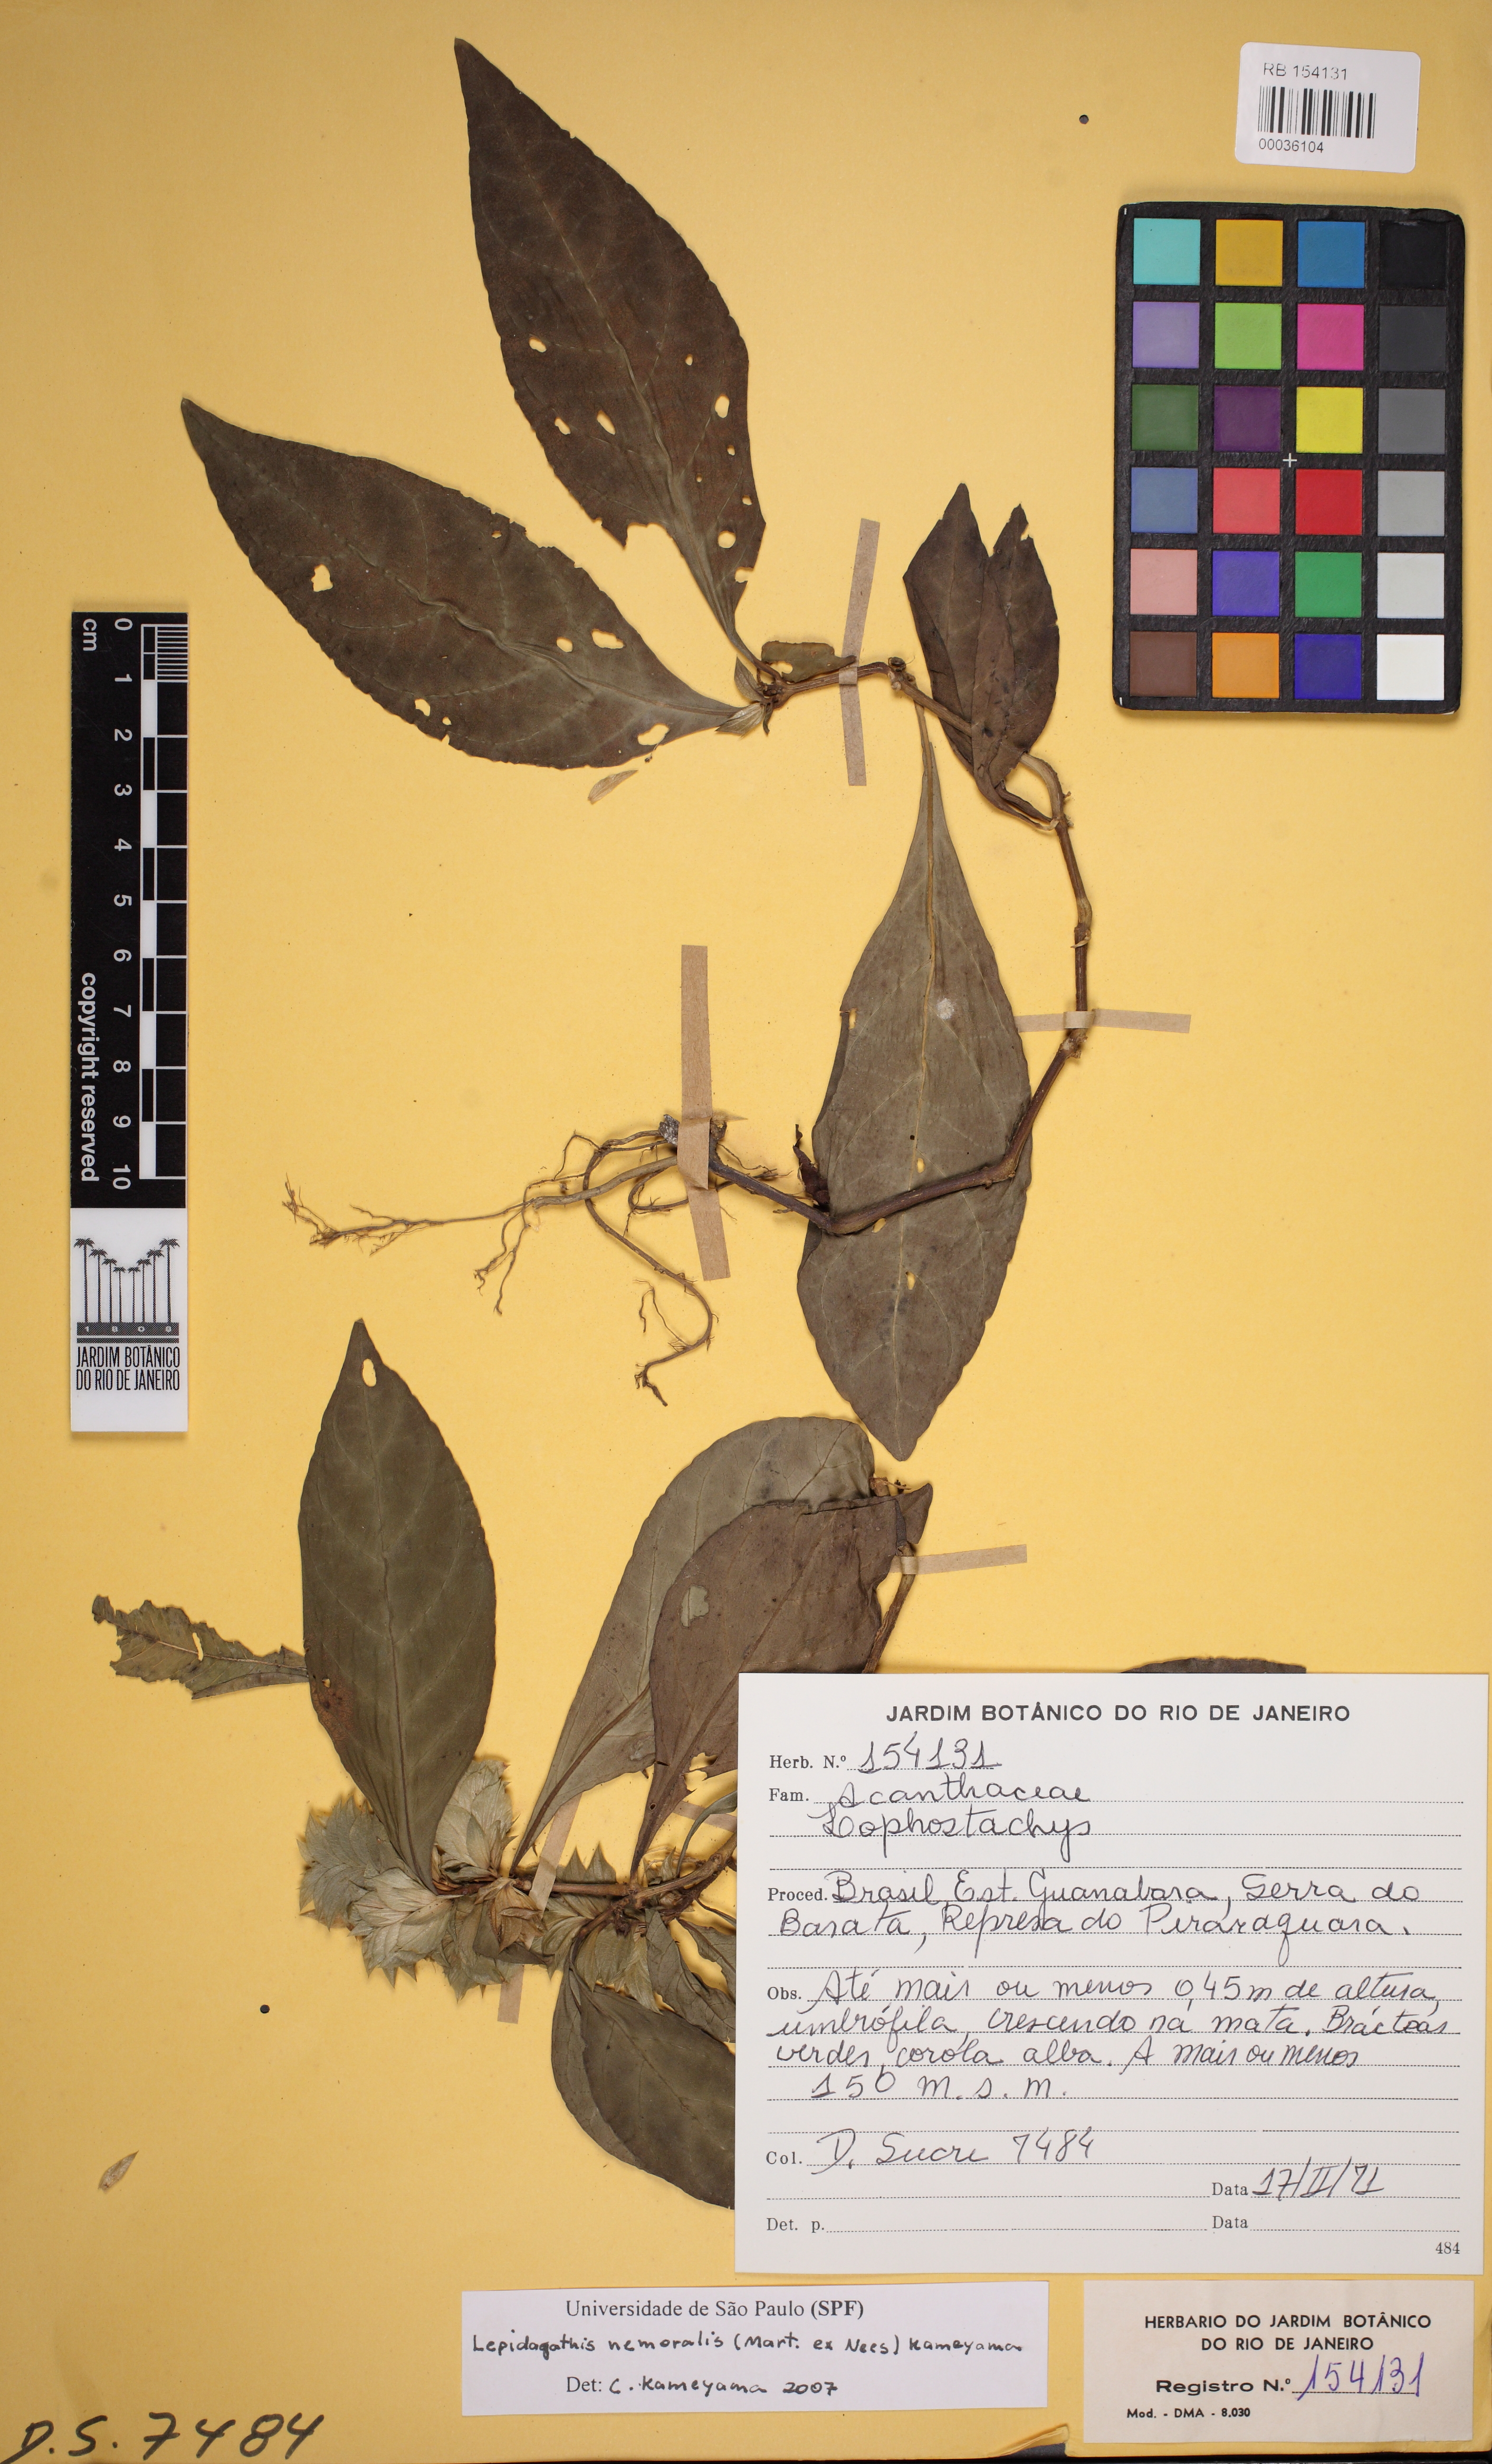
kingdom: Plantae
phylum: Tracheophyta
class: Magnoliopsida
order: Lamiales
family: Acanthaceae
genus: Lepidagathis
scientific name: Lepidagathis
